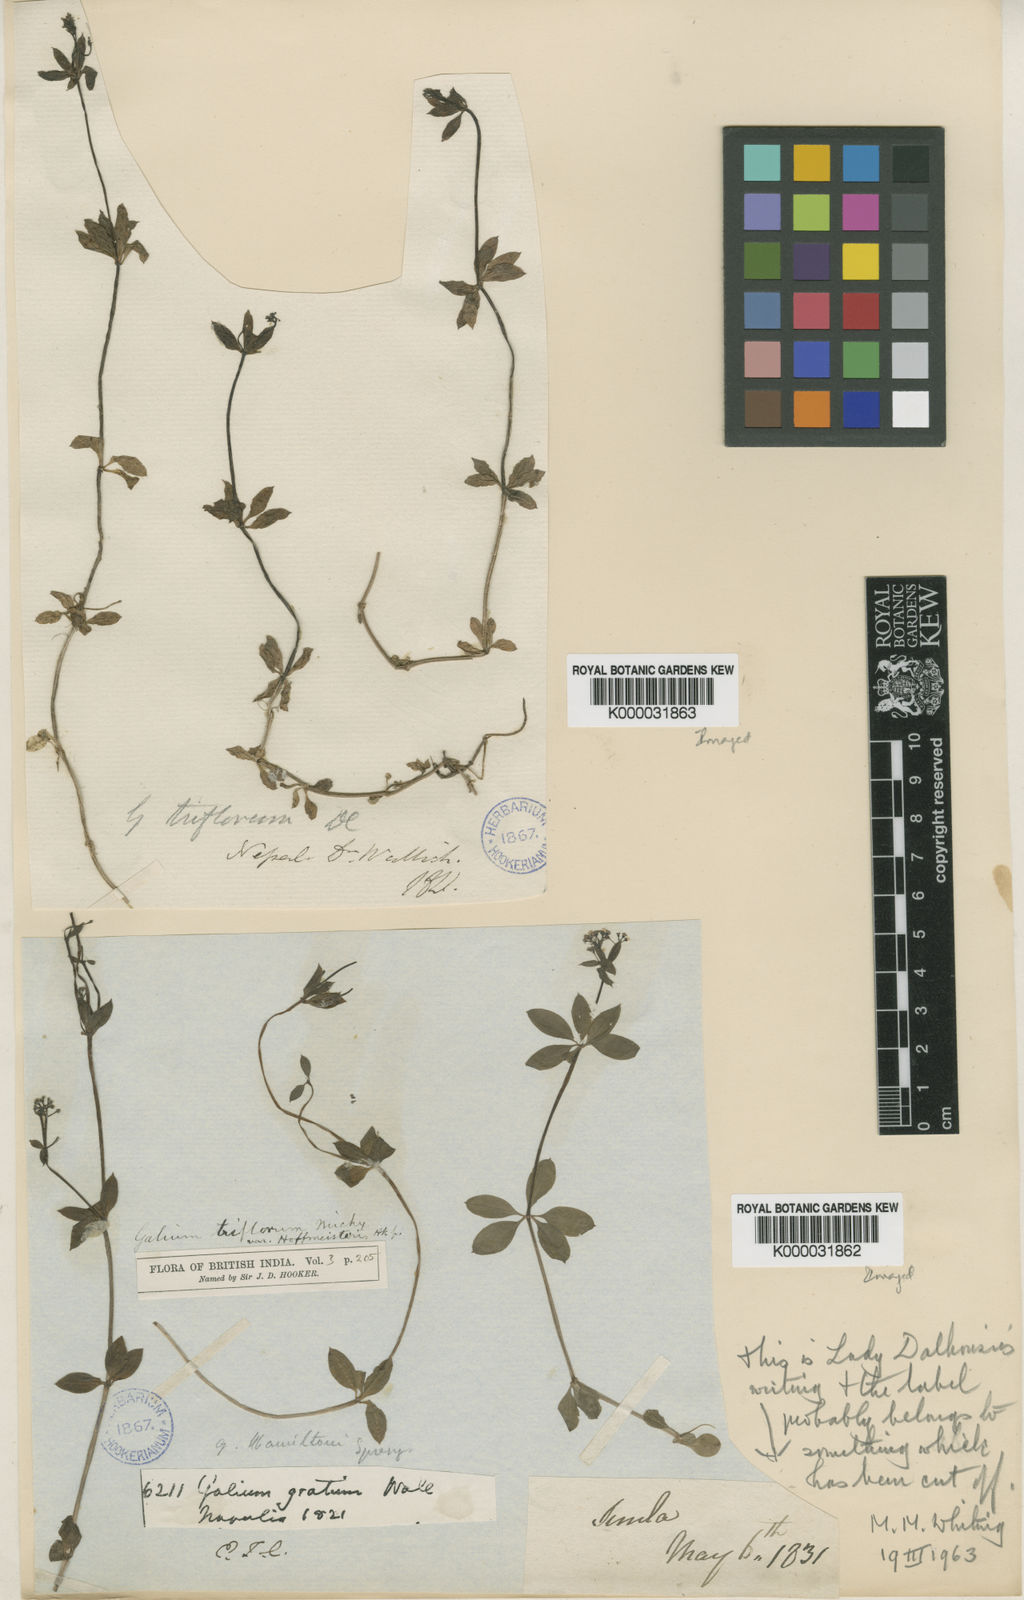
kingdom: Plantae
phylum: Tracheophyta
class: Magnoliopsida
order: Gentianales
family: Rubiaceae
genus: Galium
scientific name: Galium triflorum
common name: Fragrant bedstraw
